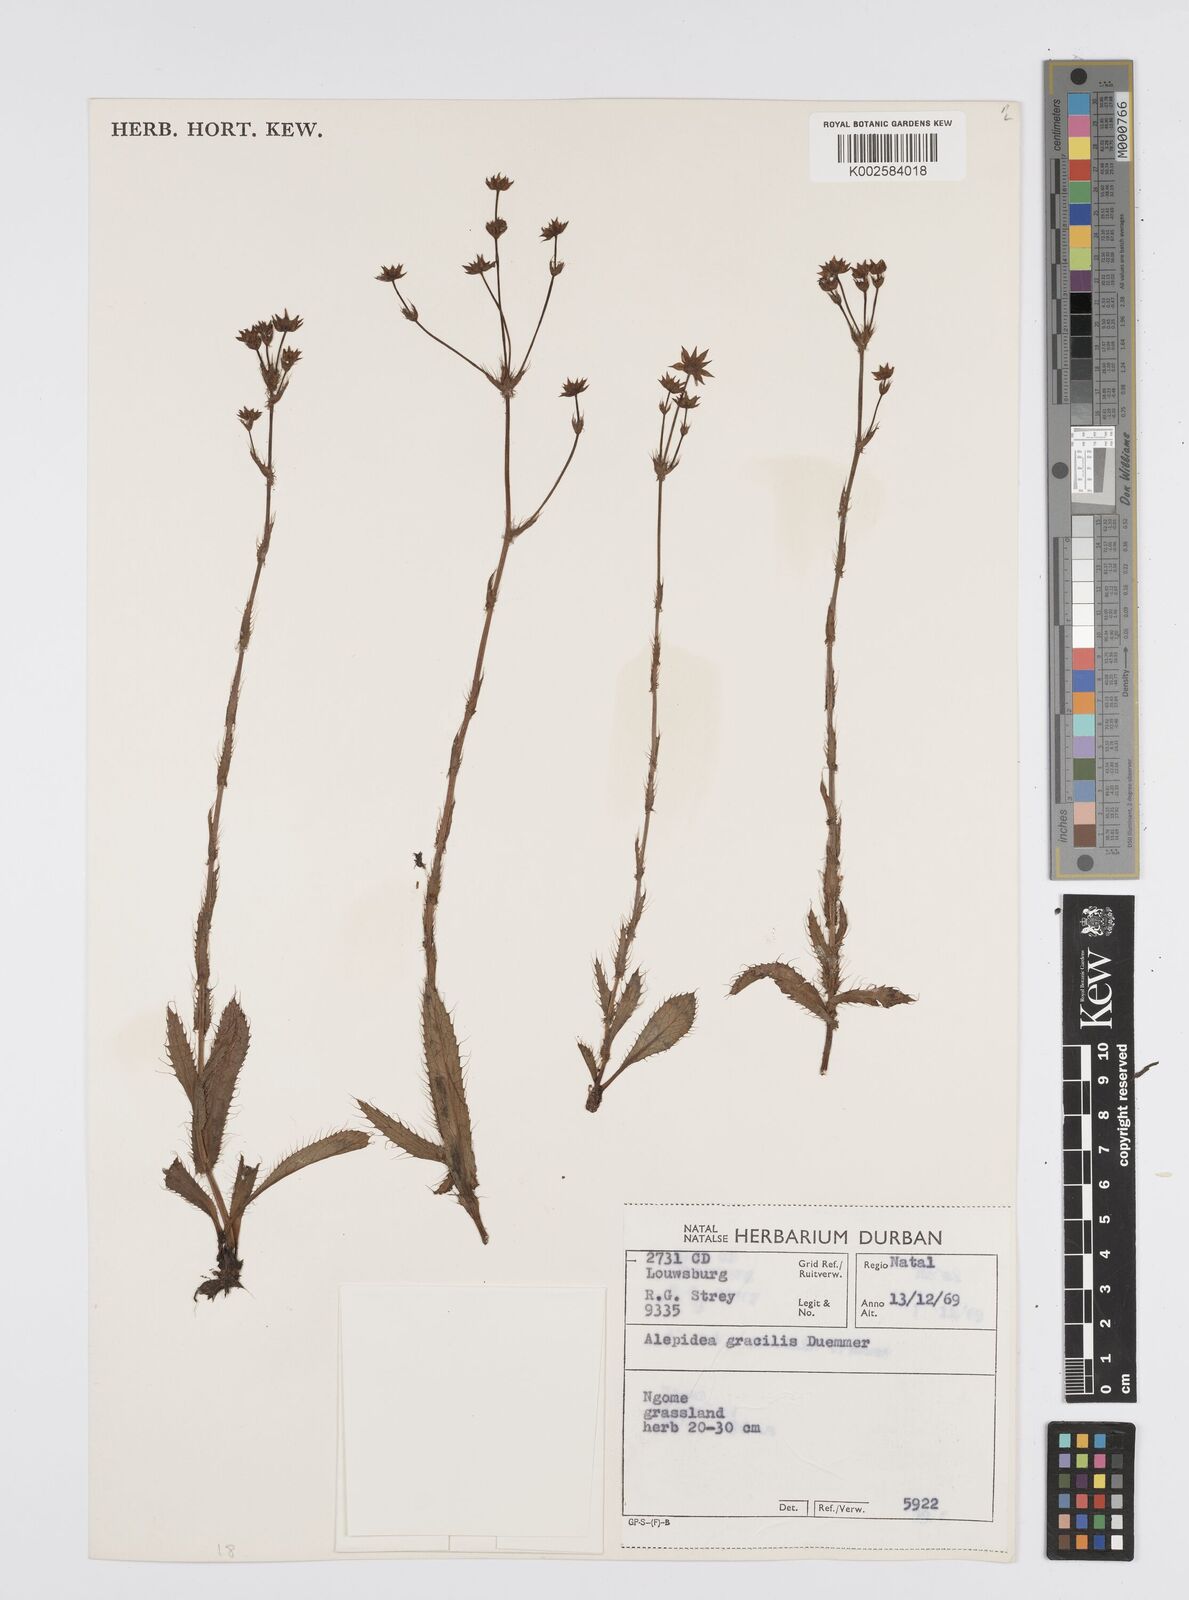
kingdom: Plantae
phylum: Tracheophyta
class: Magnoliopsida
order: Apiales
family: Apiaceae
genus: Alepidea
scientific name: Alepidea
